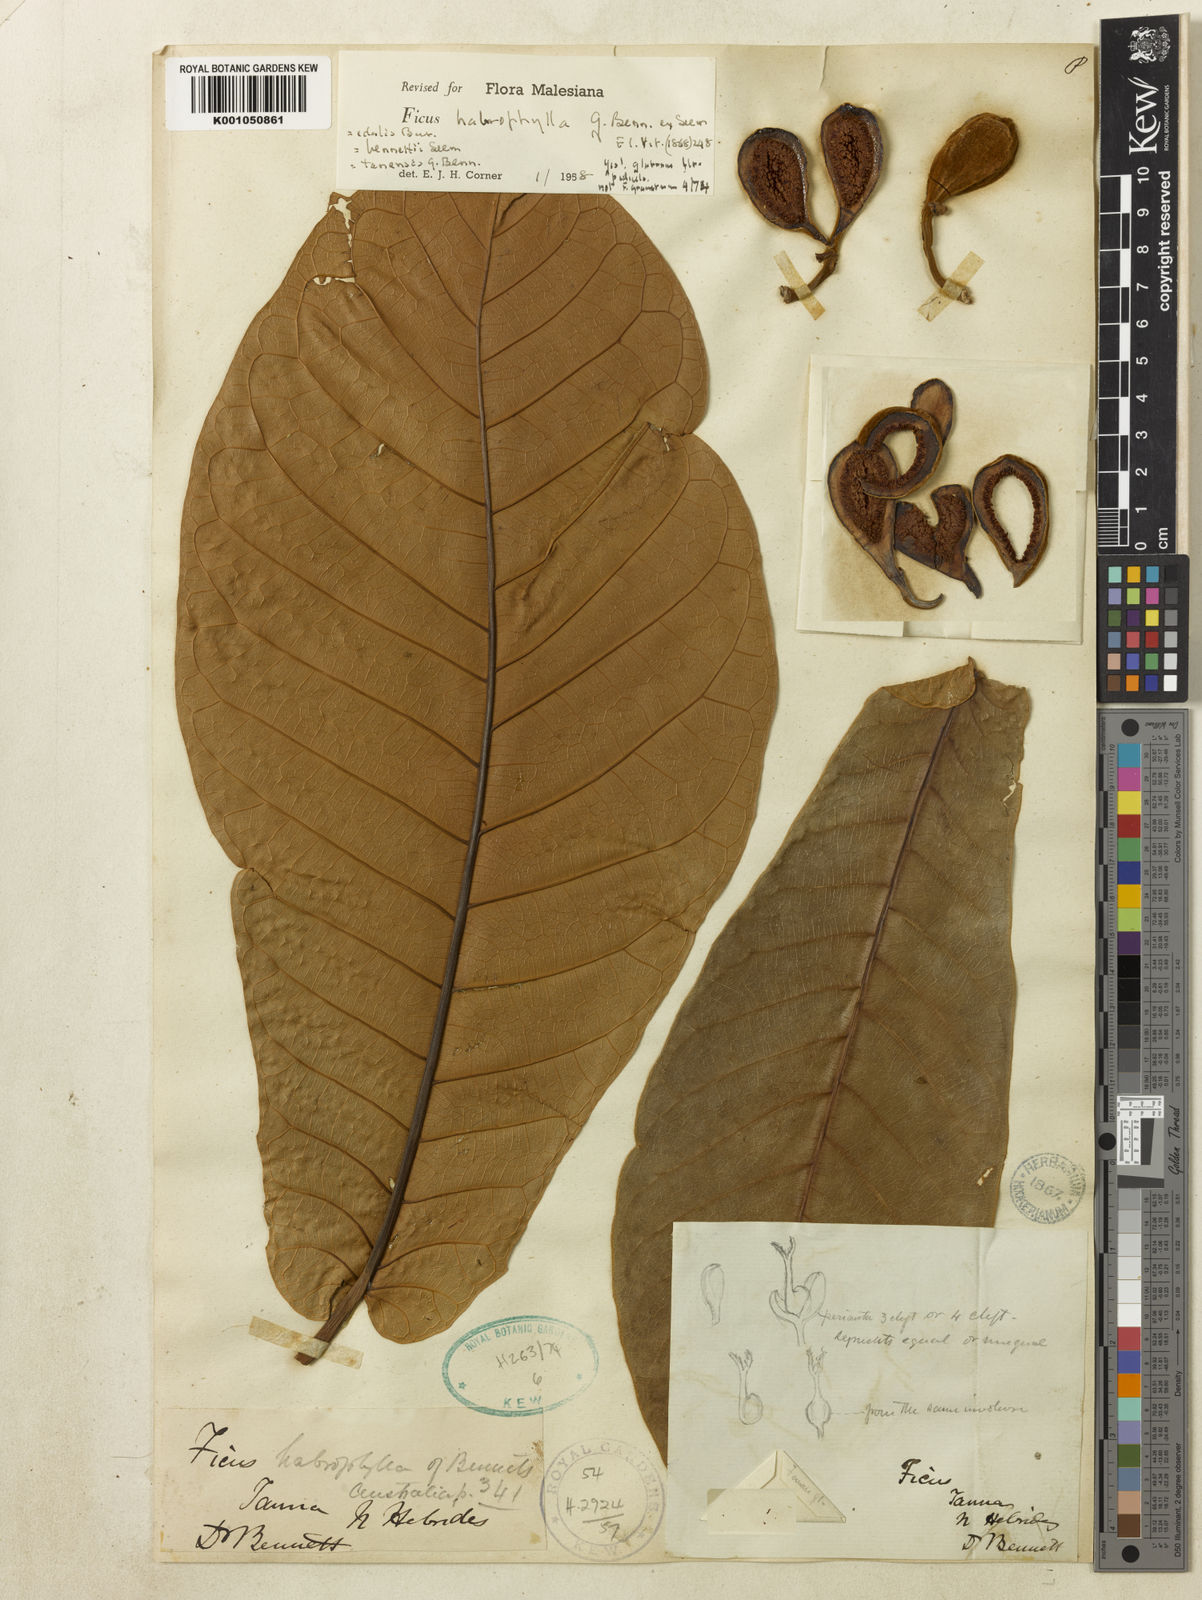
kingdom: Plantae
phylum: Tracheophyta
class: Magnoliopsida
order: Rosales
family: Moraceae
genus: Ficus
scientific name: Ficus habrophylla
